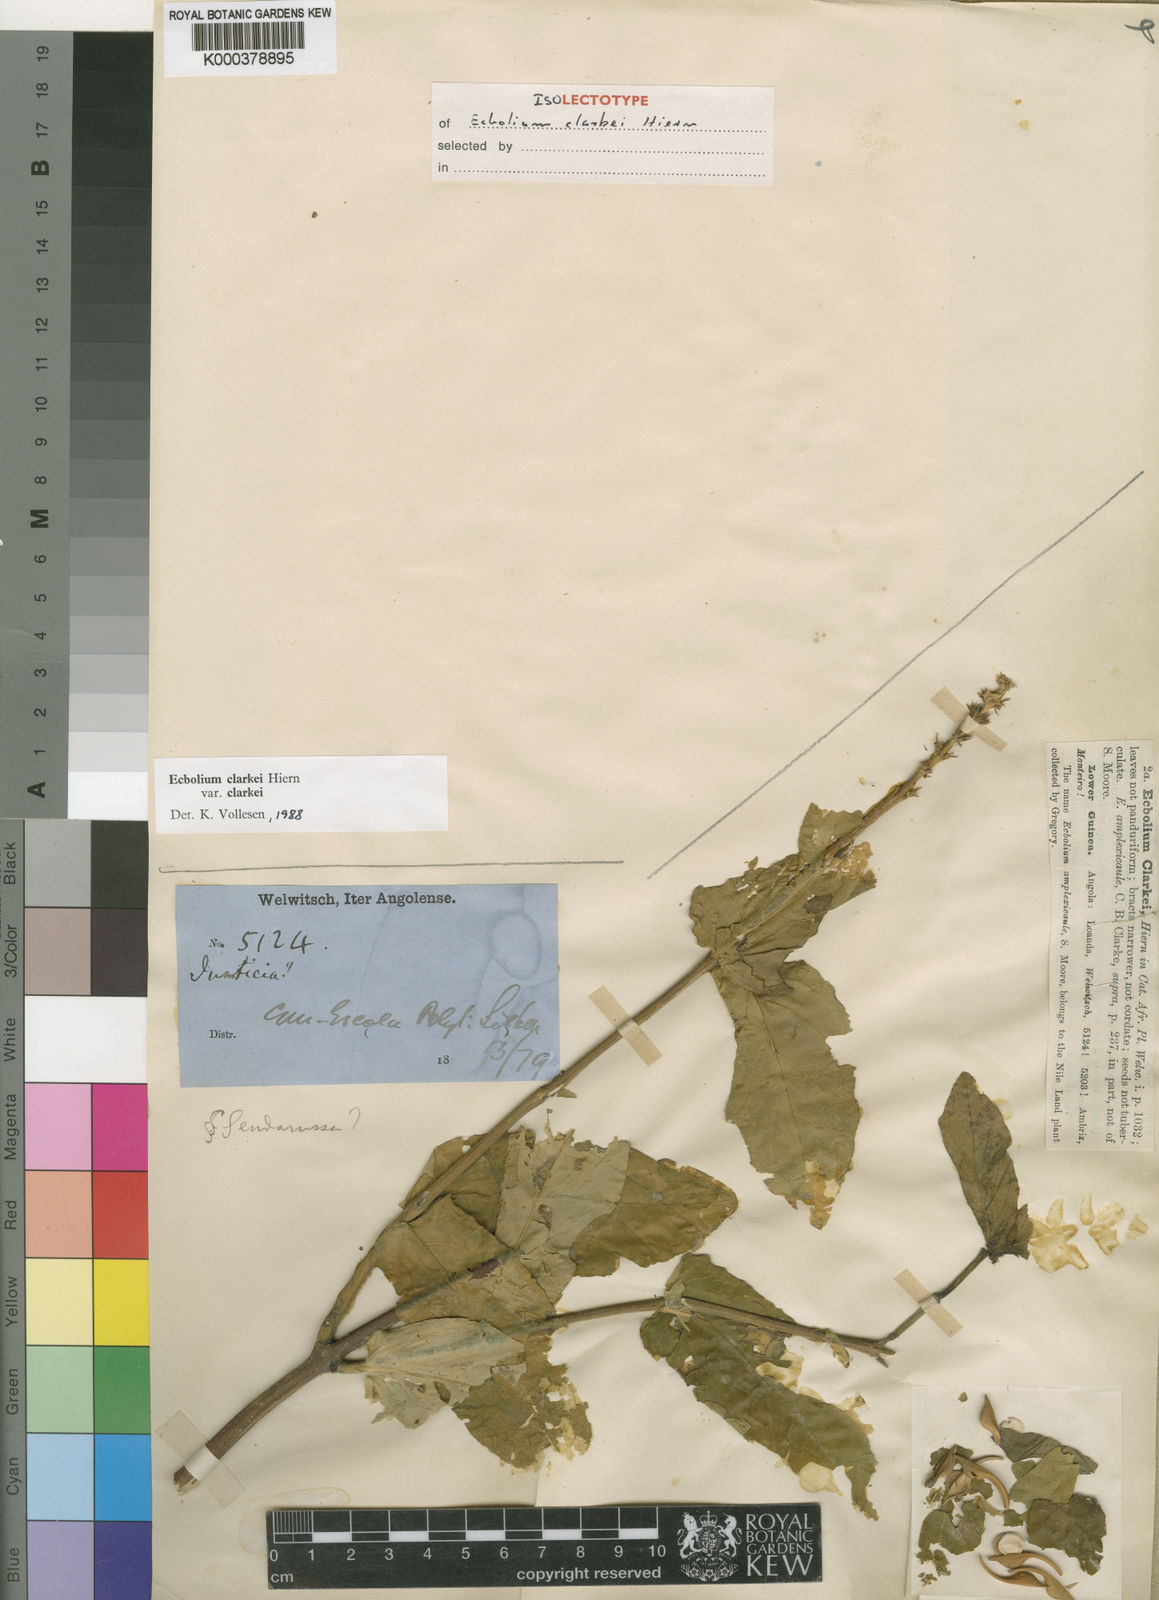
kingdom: Plantae
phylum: Tracheophyta
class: Magnoliopsida
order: Lamiales
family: Acanthaceae
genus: Ecbolium
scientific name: Ecbolium clarkei
